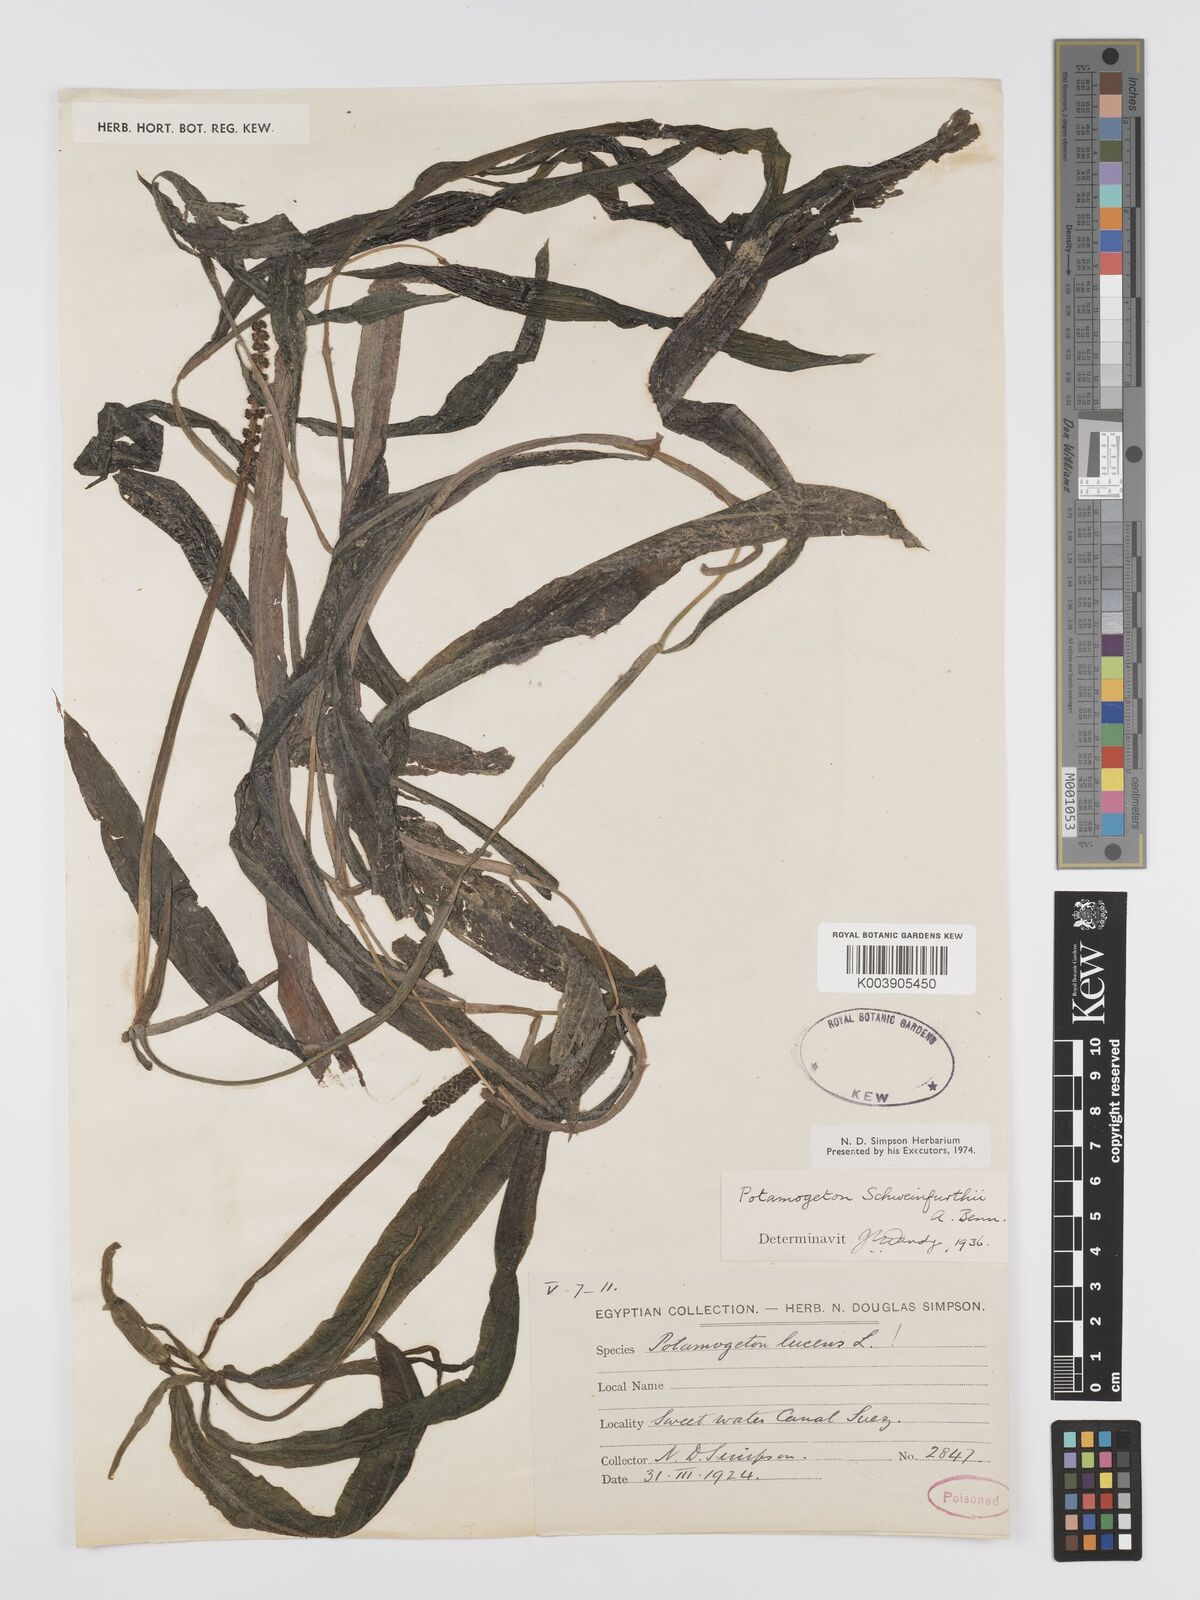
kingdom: Plantae
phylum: Tracheophyta
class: Liliopsida
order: Alismatales
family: Potamogetonaceae
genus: Potamogeton
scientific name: Potamogeton schweinfurthii
